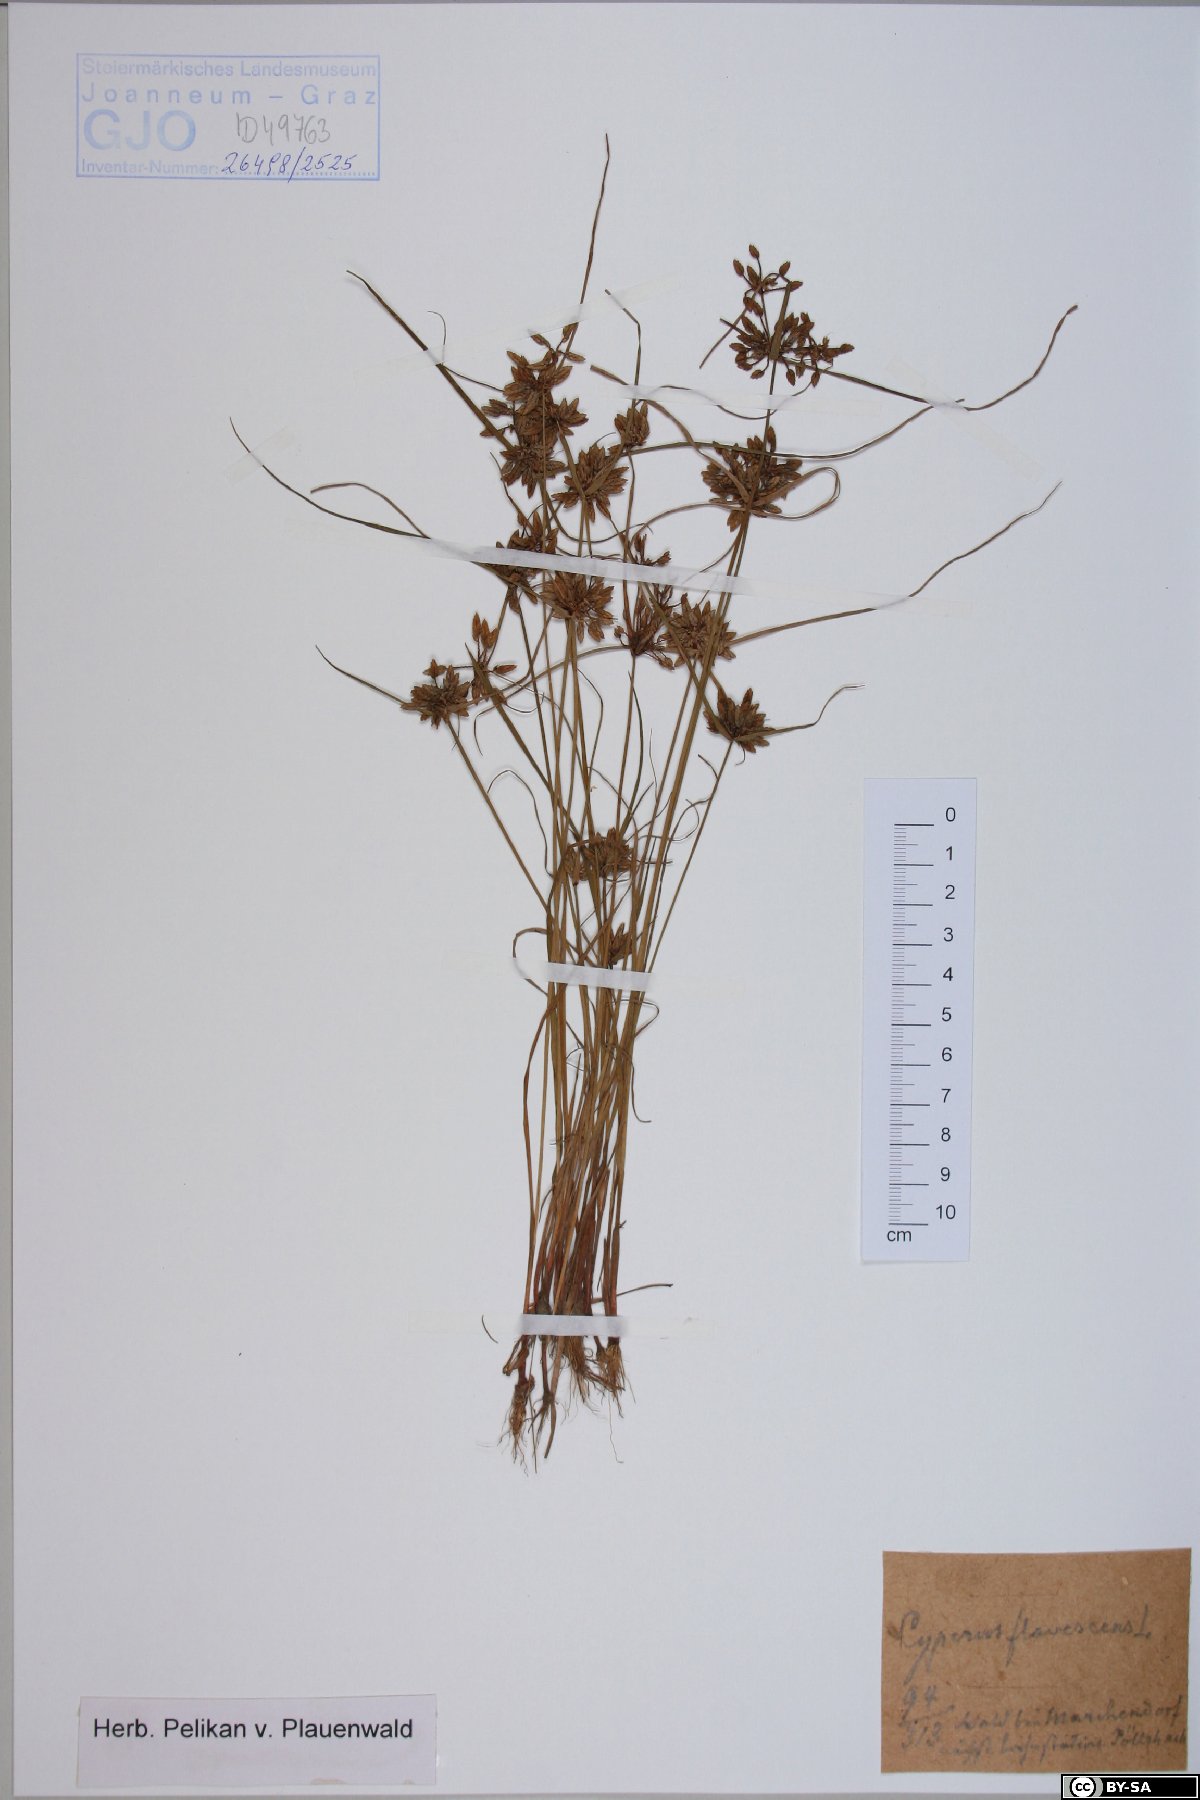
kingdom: Plantae
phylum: Tracheophyta
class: Liliopsida
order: Poales
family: Cyperaceae
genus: Cyperus
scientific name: Cyperus flavescens
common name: Yellow galingale
